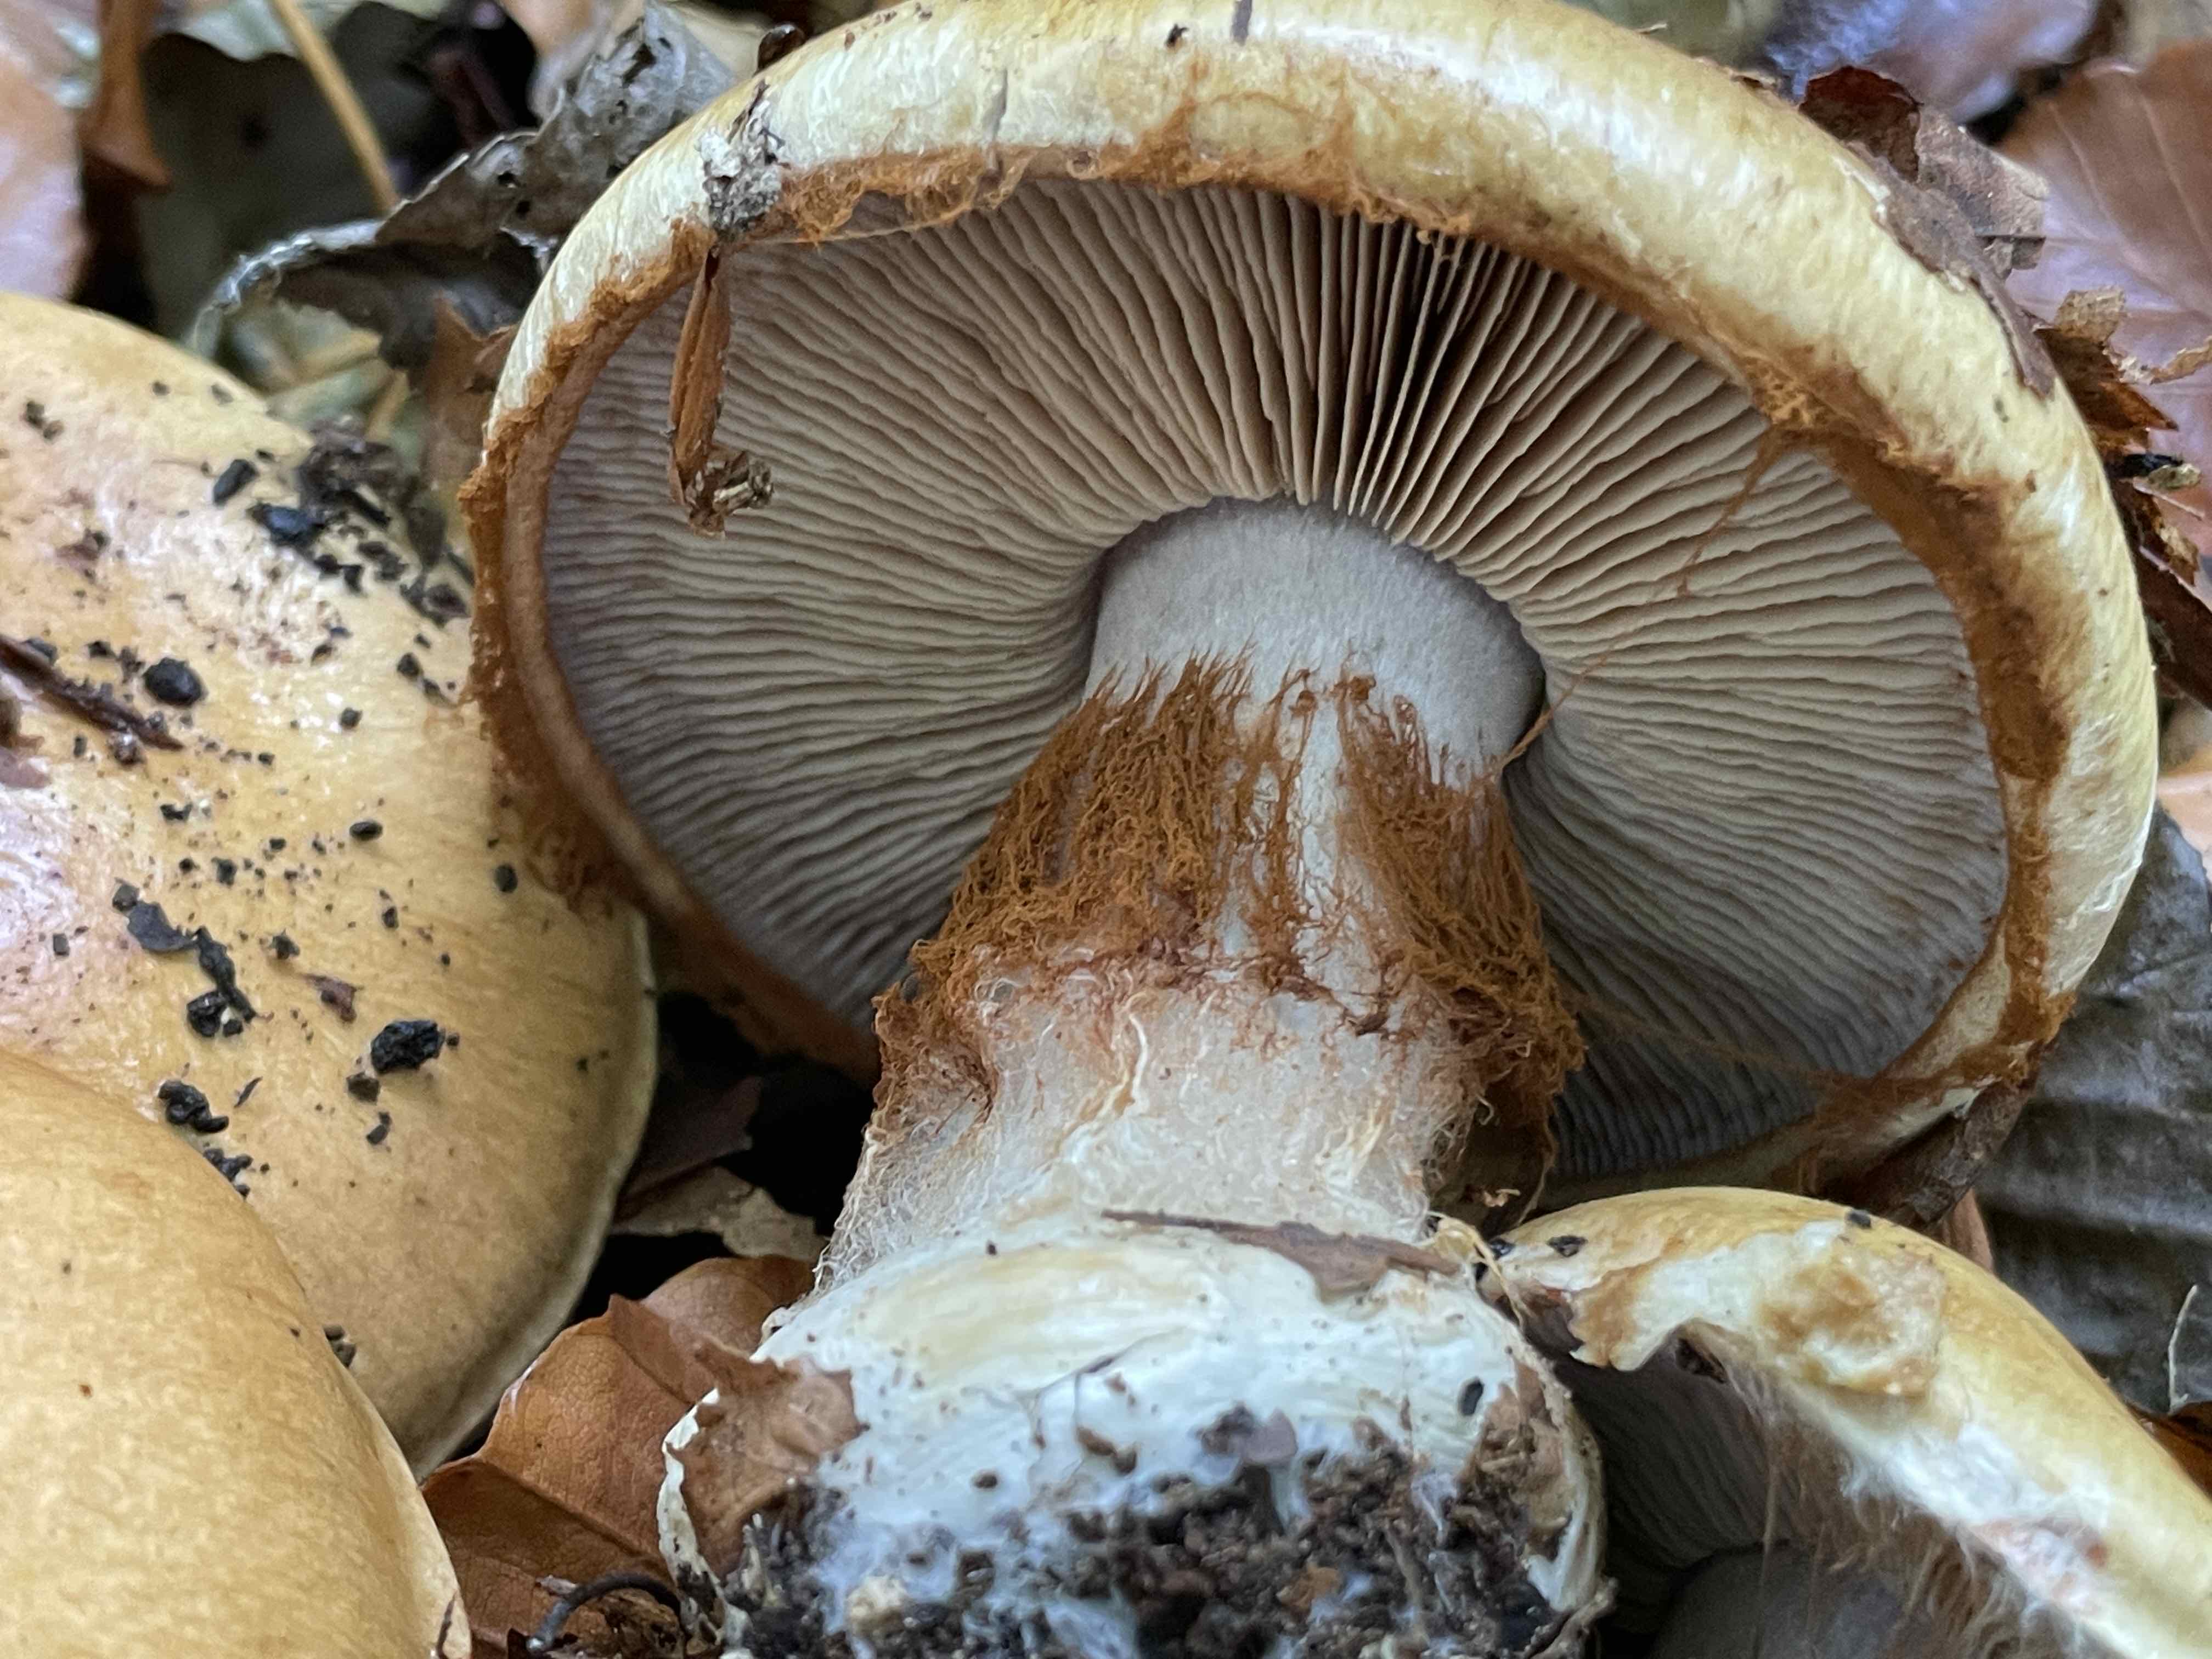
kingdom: Fungi
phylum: Basidiomycota
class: Agaricomycetes
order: Agaricales
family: Cortinariaceae
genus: Cortinarius
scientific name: Cortinarius anserinus
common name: bøge-slørhat
